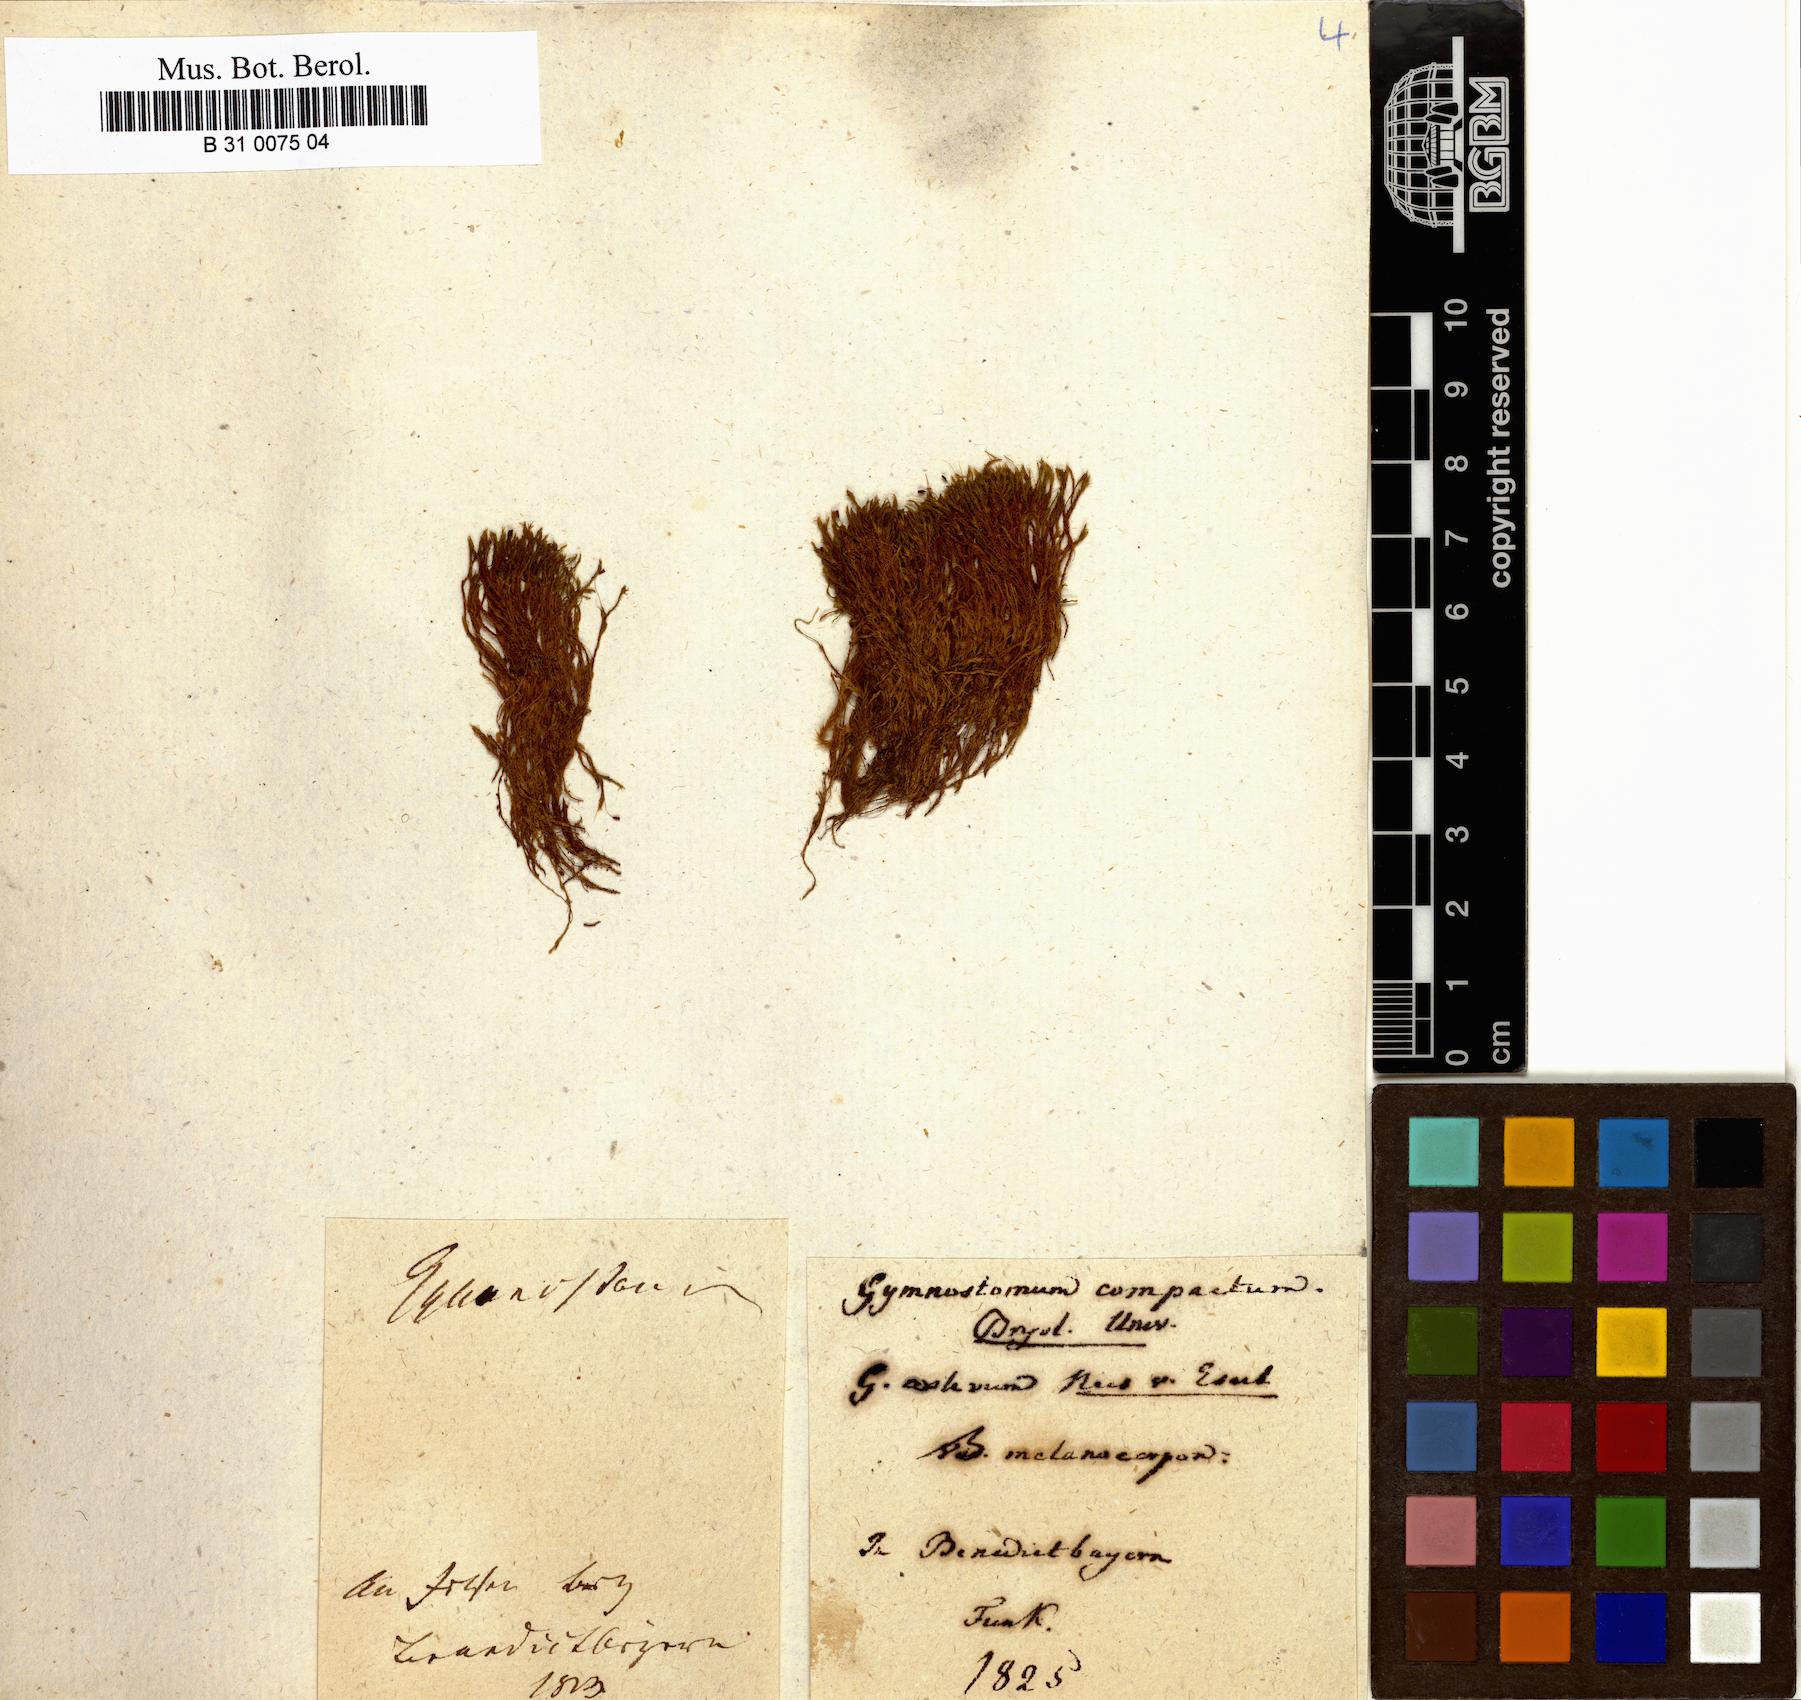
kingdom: Plantae
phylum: Bryophyta
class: Bryopsida
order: Pottiales
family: Pottiaceae
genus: Anoectangium
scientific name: Anoectangium aestivum
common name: Summer-moss
